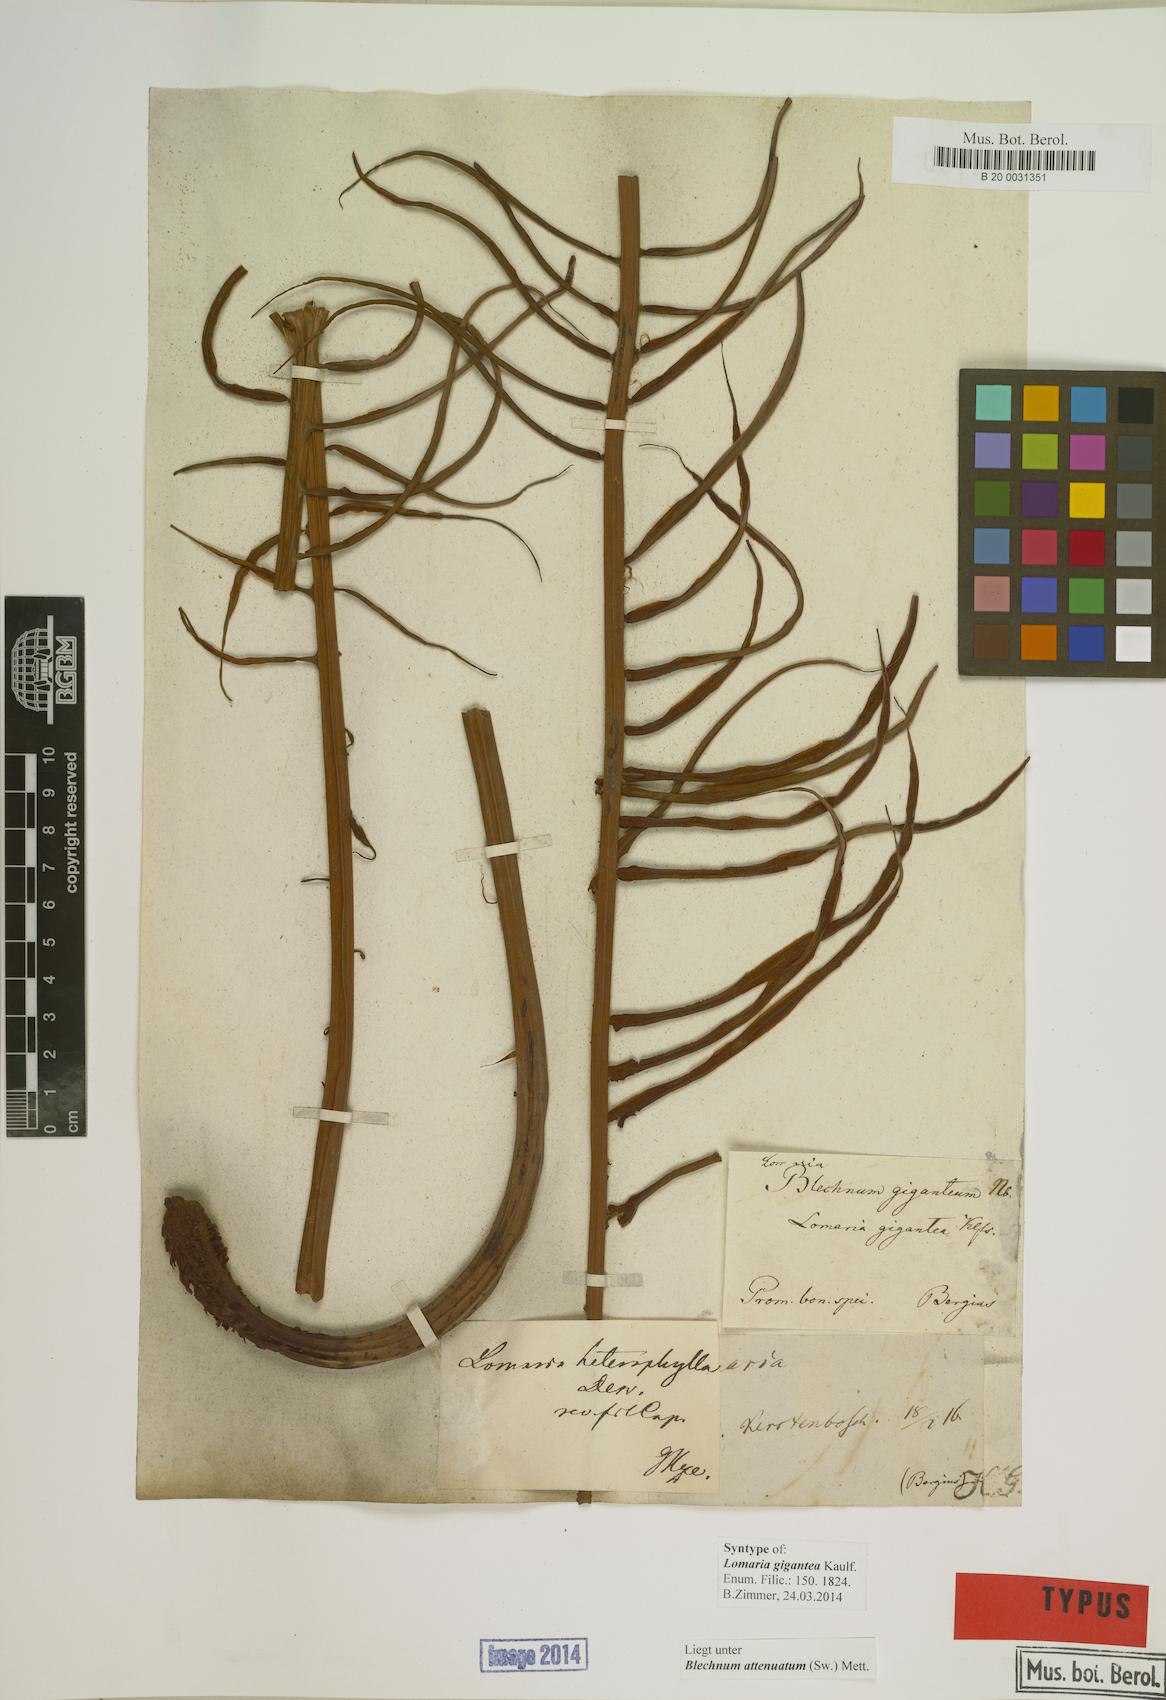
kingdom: Plantae
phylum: Tracheophyta
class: Polypodiopsida
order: Polypodiales
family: Blechnaceae
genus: Lomaridium
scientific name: Lomaridium attenuatum
